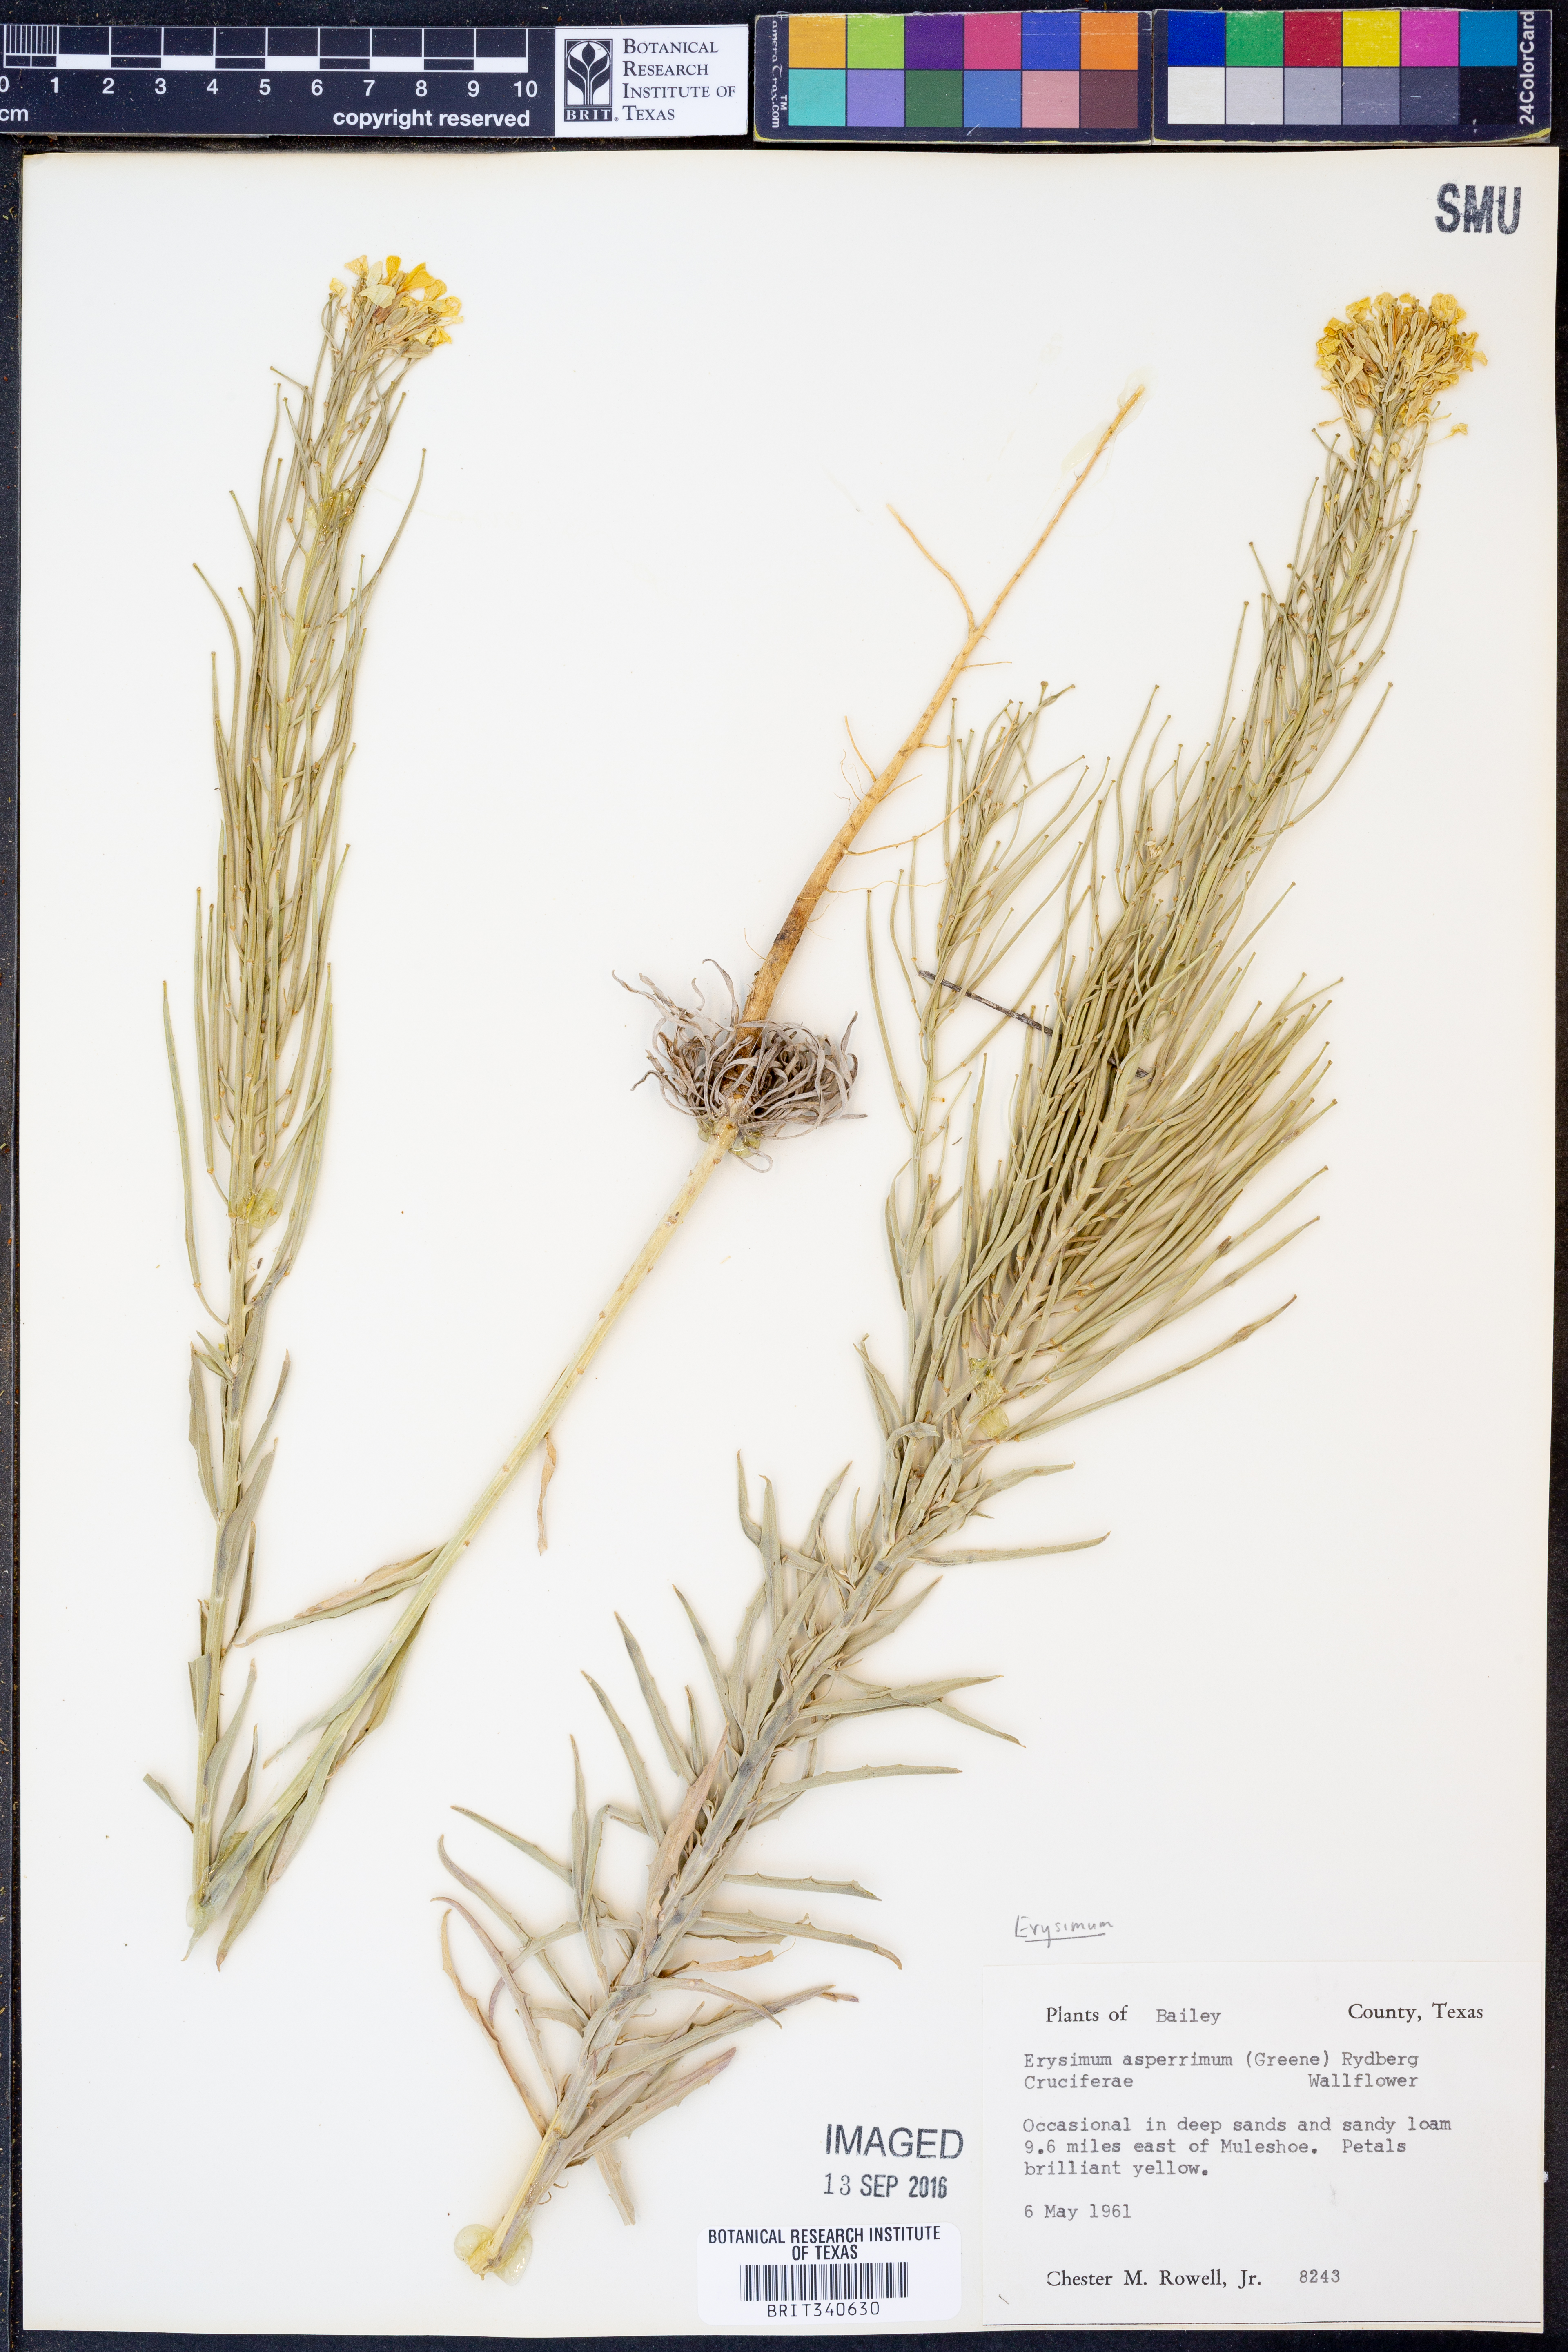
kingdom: Plantae
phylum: Tracheophyta
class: Magnoliopsida
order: Brassicales
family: Brassicaceae
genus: Erysimum
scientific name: Erysimum capitatum
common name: Western wallflower
